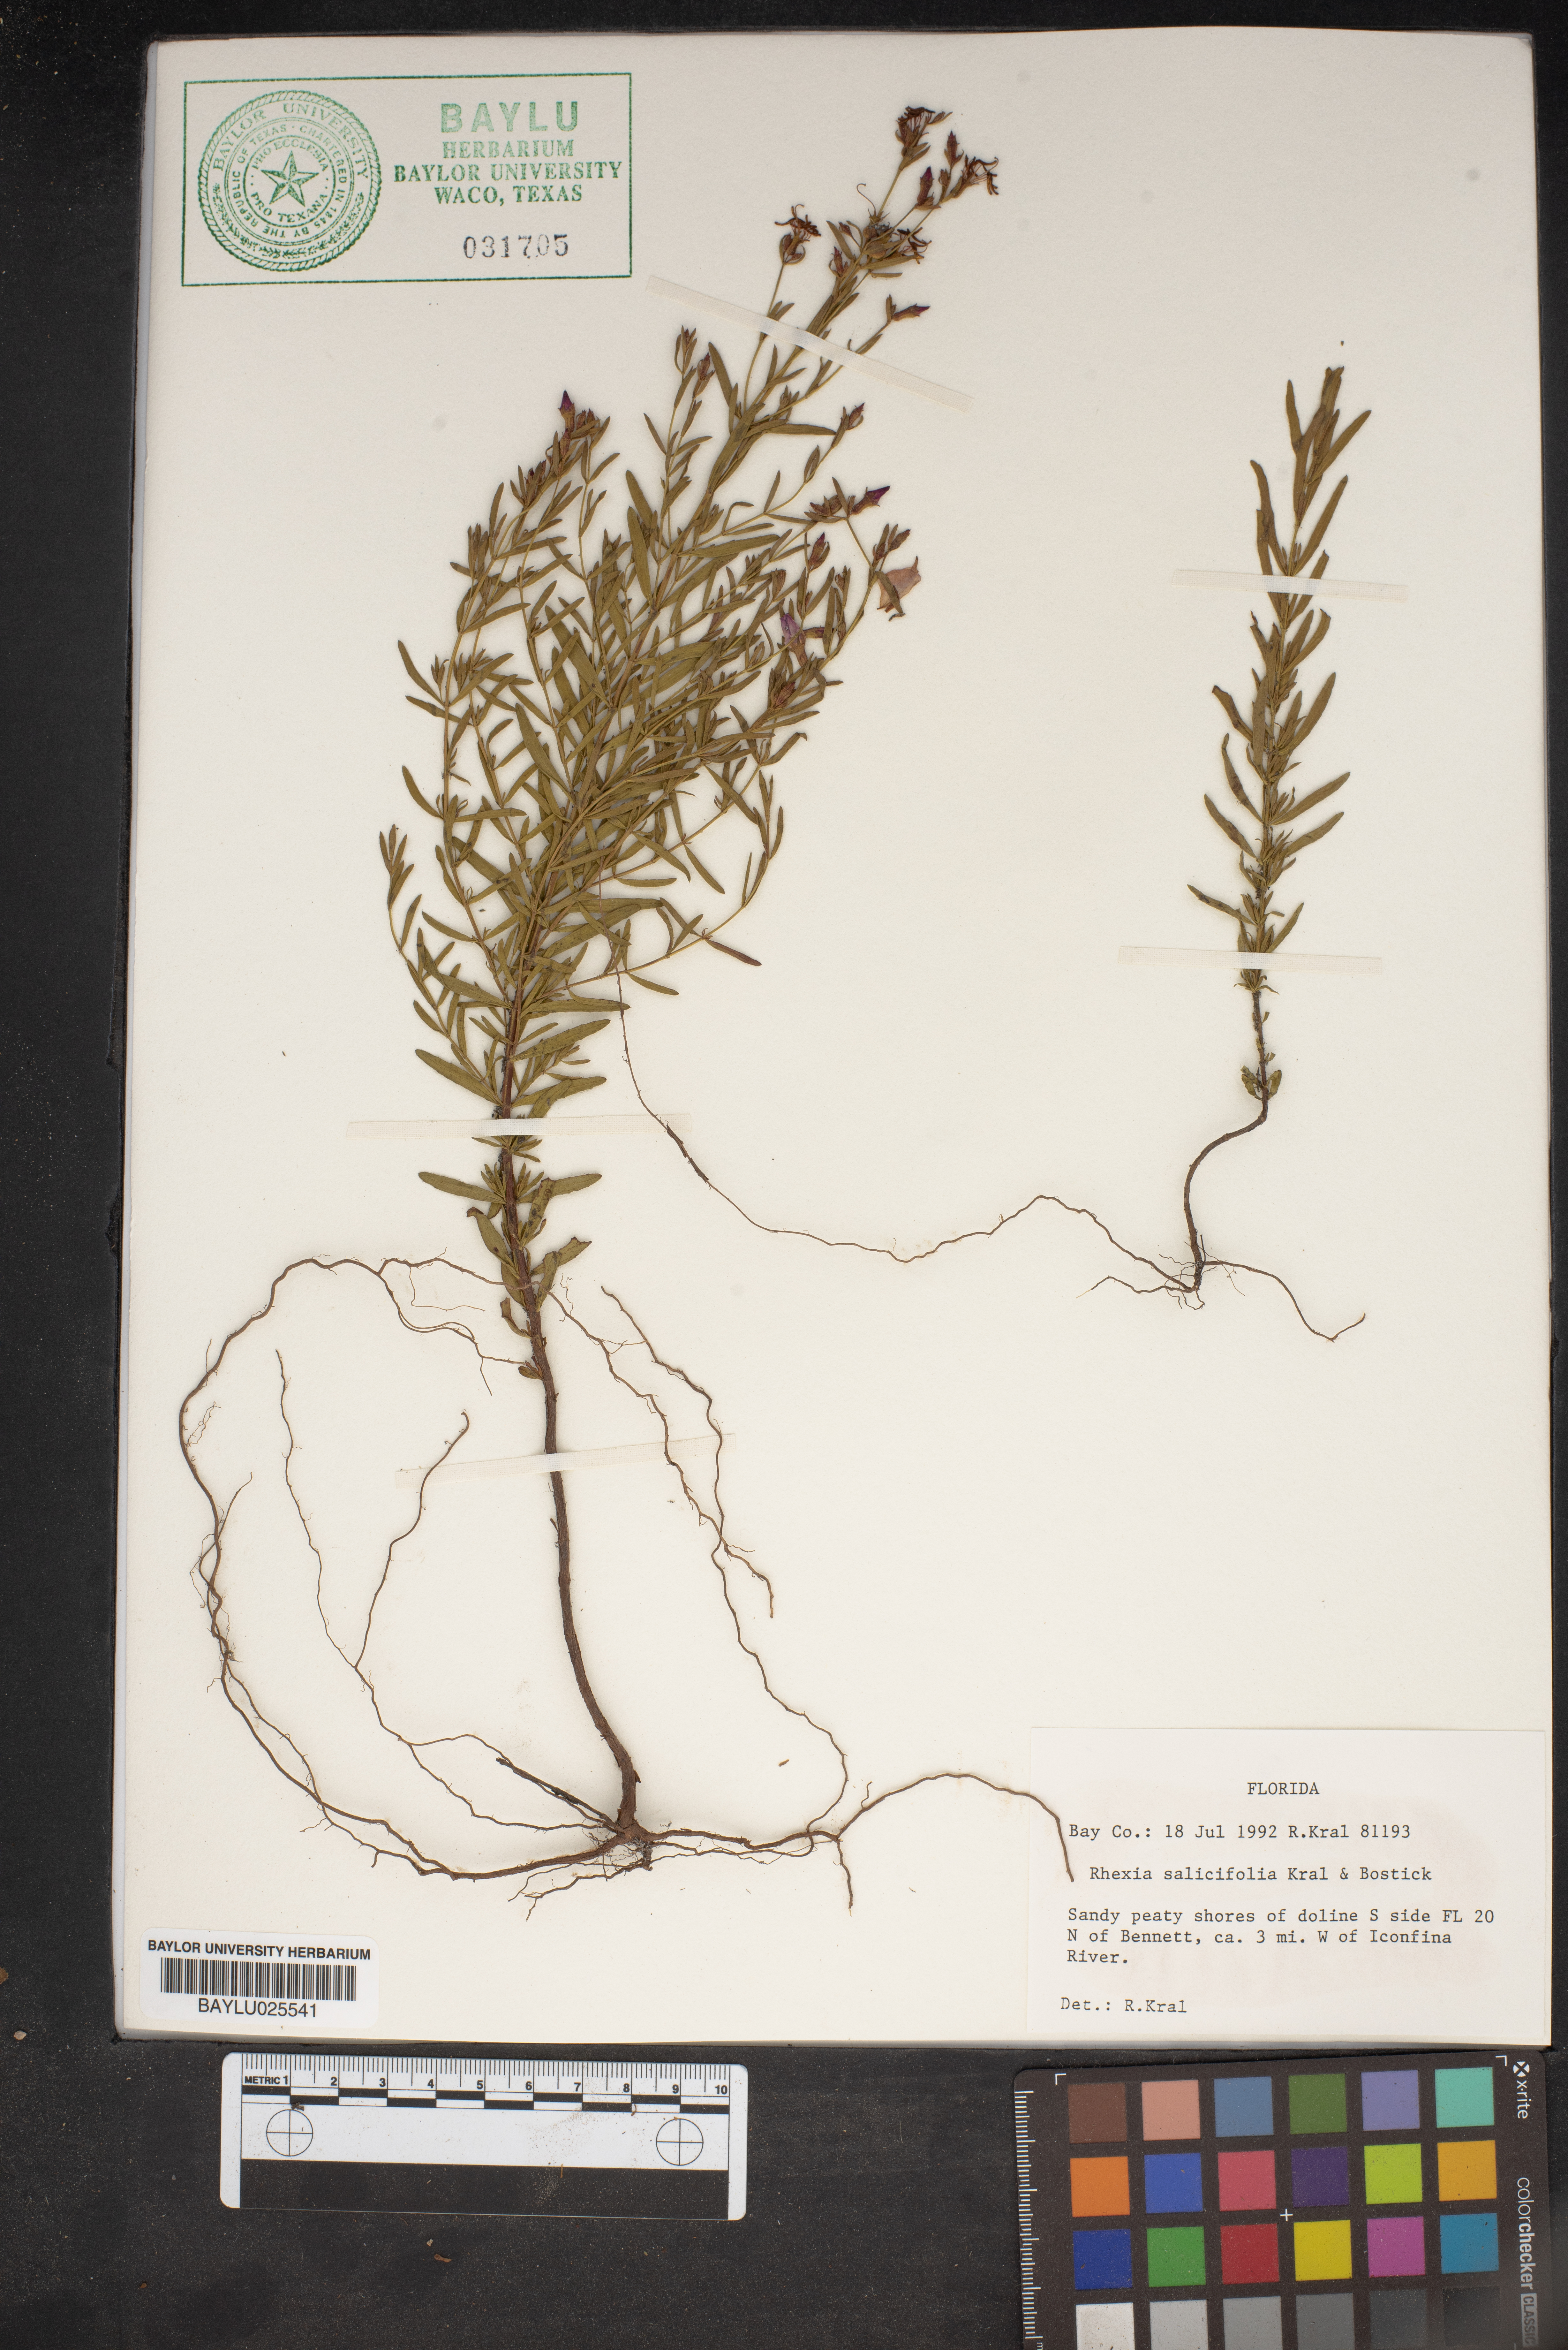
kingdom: Plantae
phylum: Tracheophyta
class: Magnoliopsida
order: Myrtales
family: Melastomataceae
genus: Rhexia
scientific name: Rhexia salicifolia
